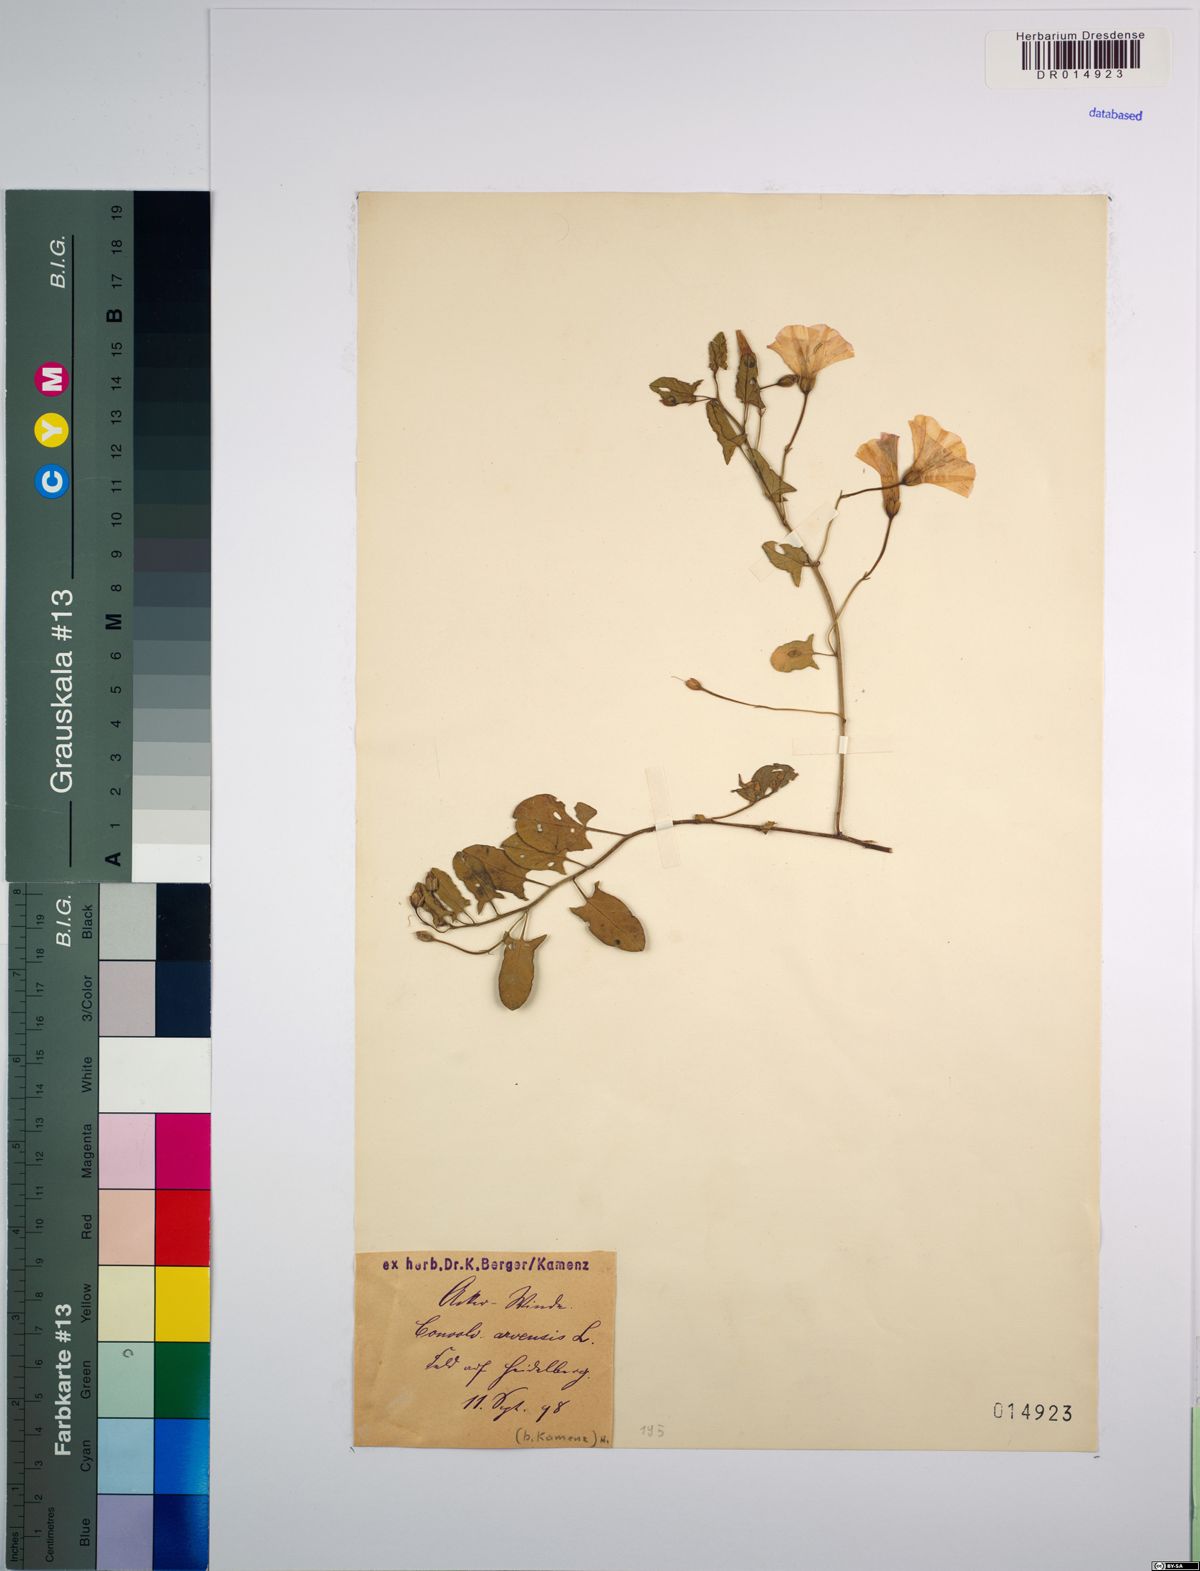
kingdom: Plantae
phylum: Tracheophyta
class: Magnoliopsida
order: Solanales
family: Convolvulaceae
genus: Convolvulus
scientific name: Convolvulus arvensis
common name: Field bindweed
